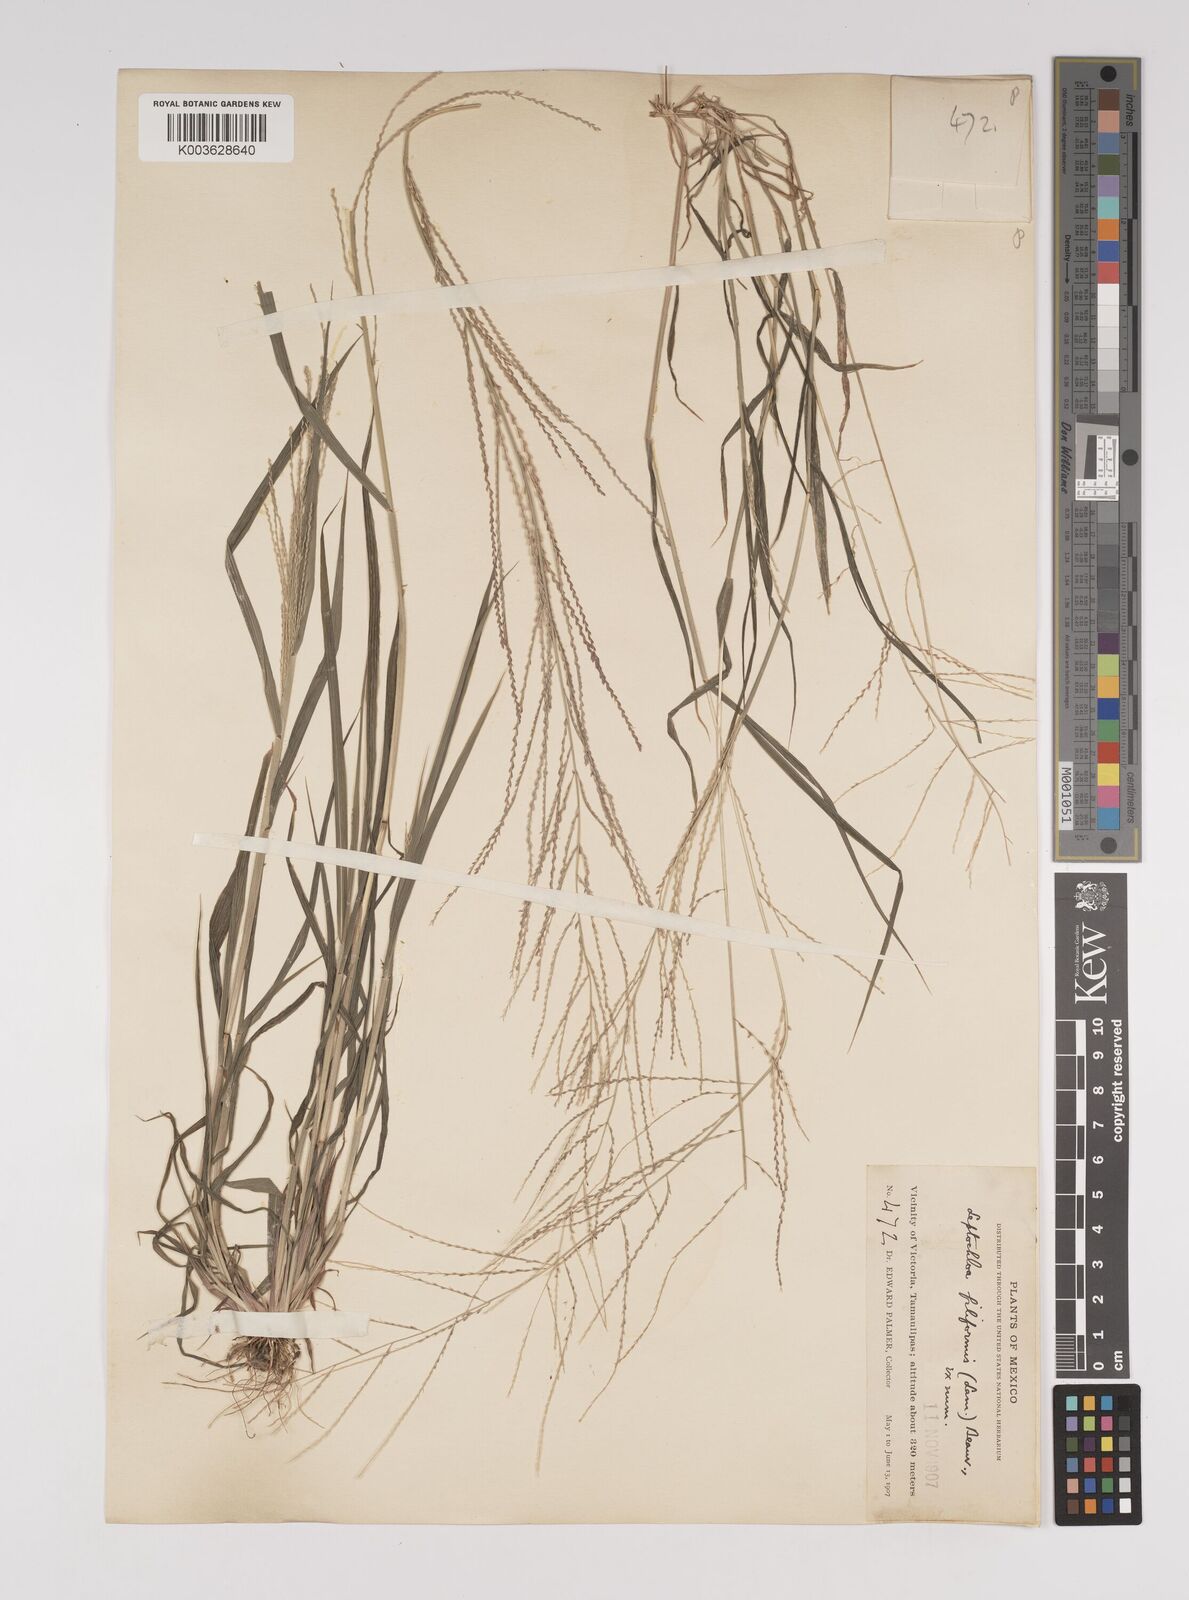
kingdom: Plantae
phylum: Tracheophyta
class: Liliopsida
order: Poales
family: Poaceae
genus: Leptochloa
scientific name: Leptochloa panicea
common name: Mucronate sprangletop
